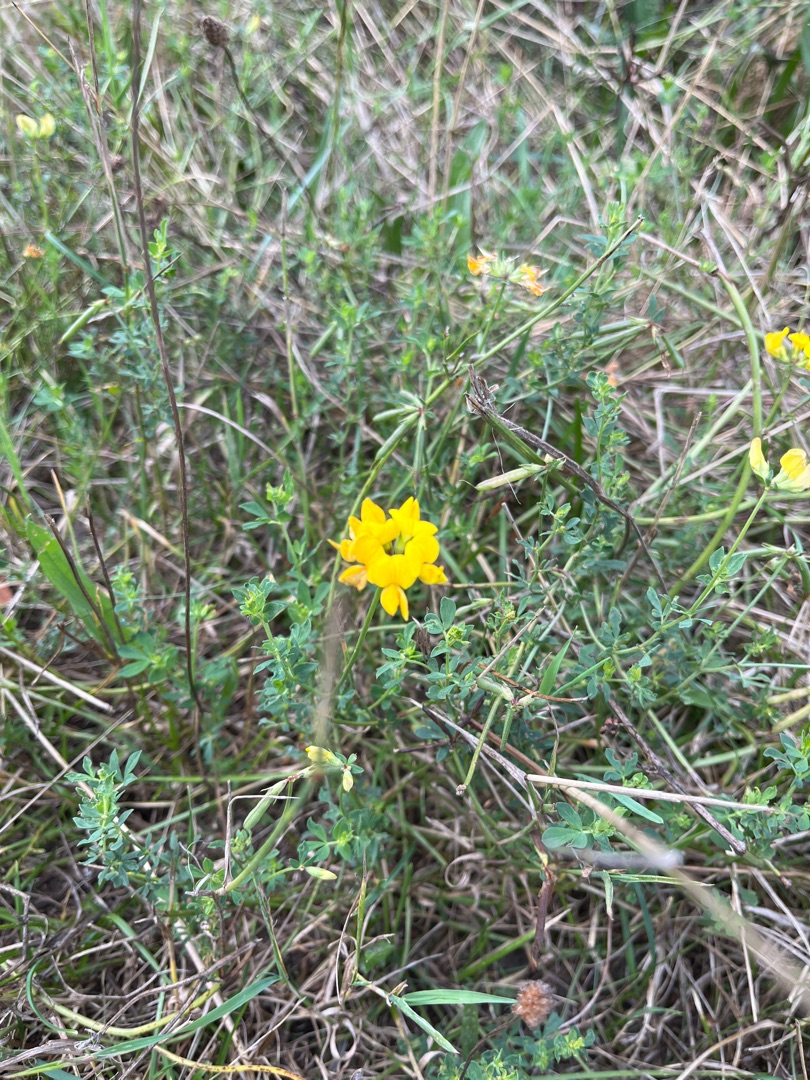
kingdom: Plantae
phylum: Tracheophyta
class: Magnoliopsida
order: Fabales
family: Fabaceae
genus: Lotus
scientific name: Lotus corniculatus
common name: Almindelig kællingetand
